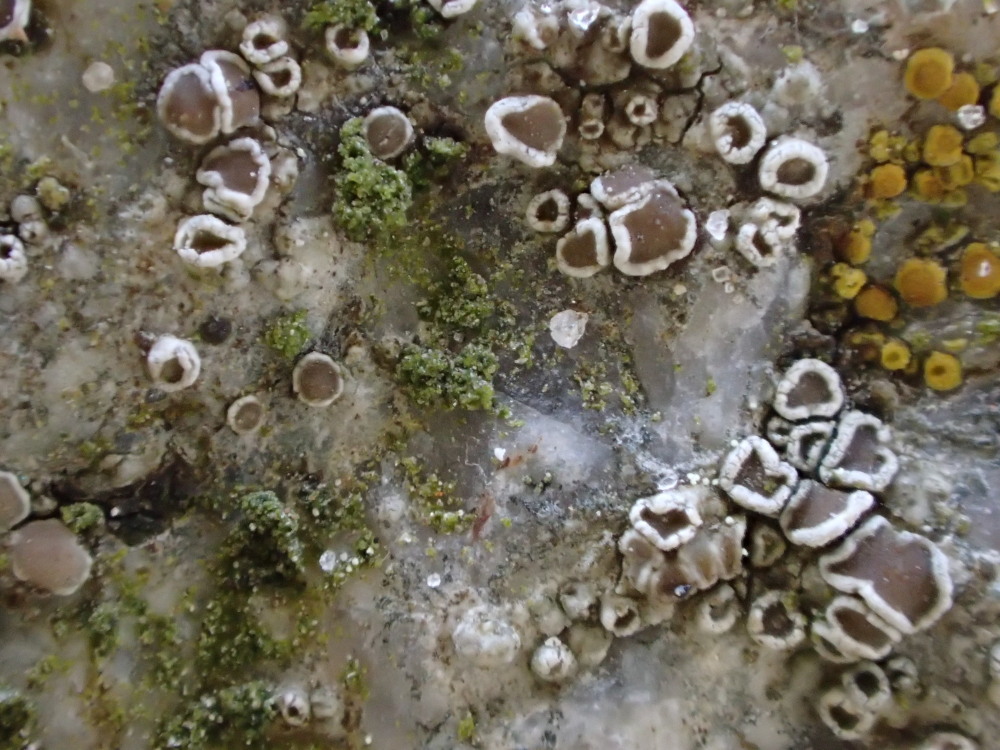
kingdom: Fungi
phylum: Ascomycota
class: Lecanoromycetes
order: Lecanorales
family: Lecanoraceae
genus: Polyozosia
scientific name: Polyozosia dispersa
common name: spredt kantskivelav
